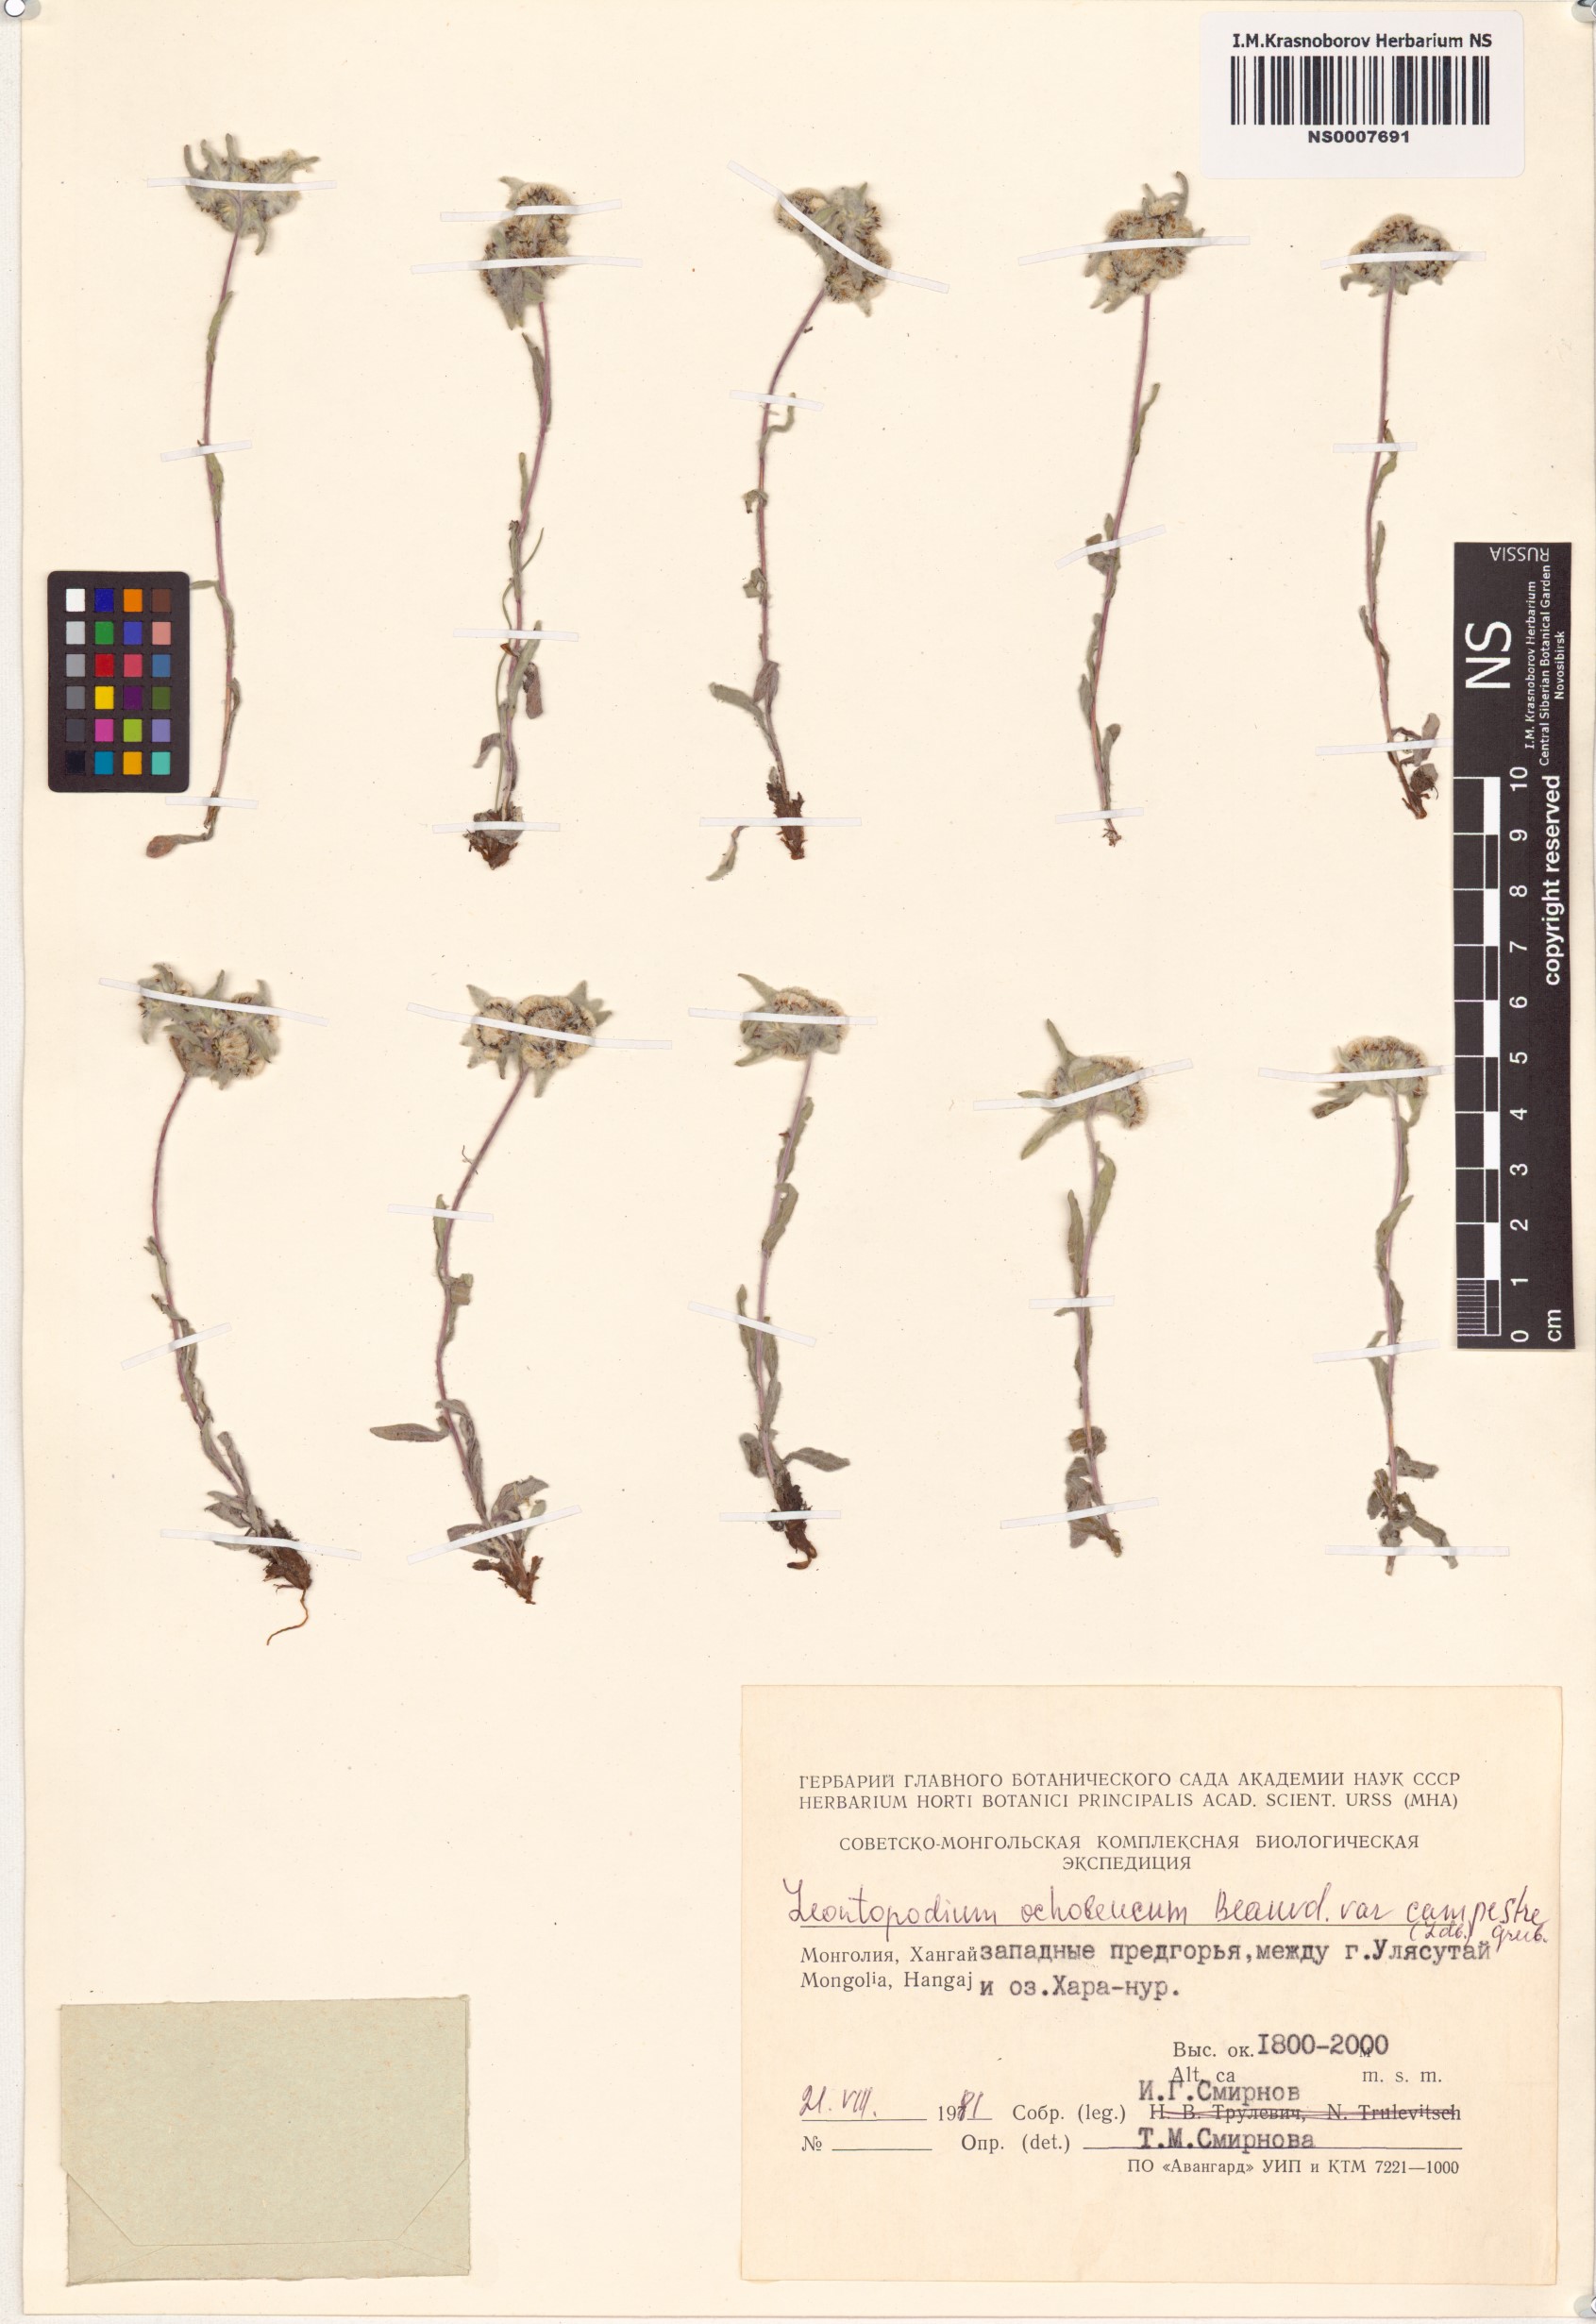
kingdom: Plantae
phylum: Tracheophyta
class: Magnoliopsida
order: Asterales
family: Asteraceae
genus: Leontopodium
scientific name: Leontopodium campestre
